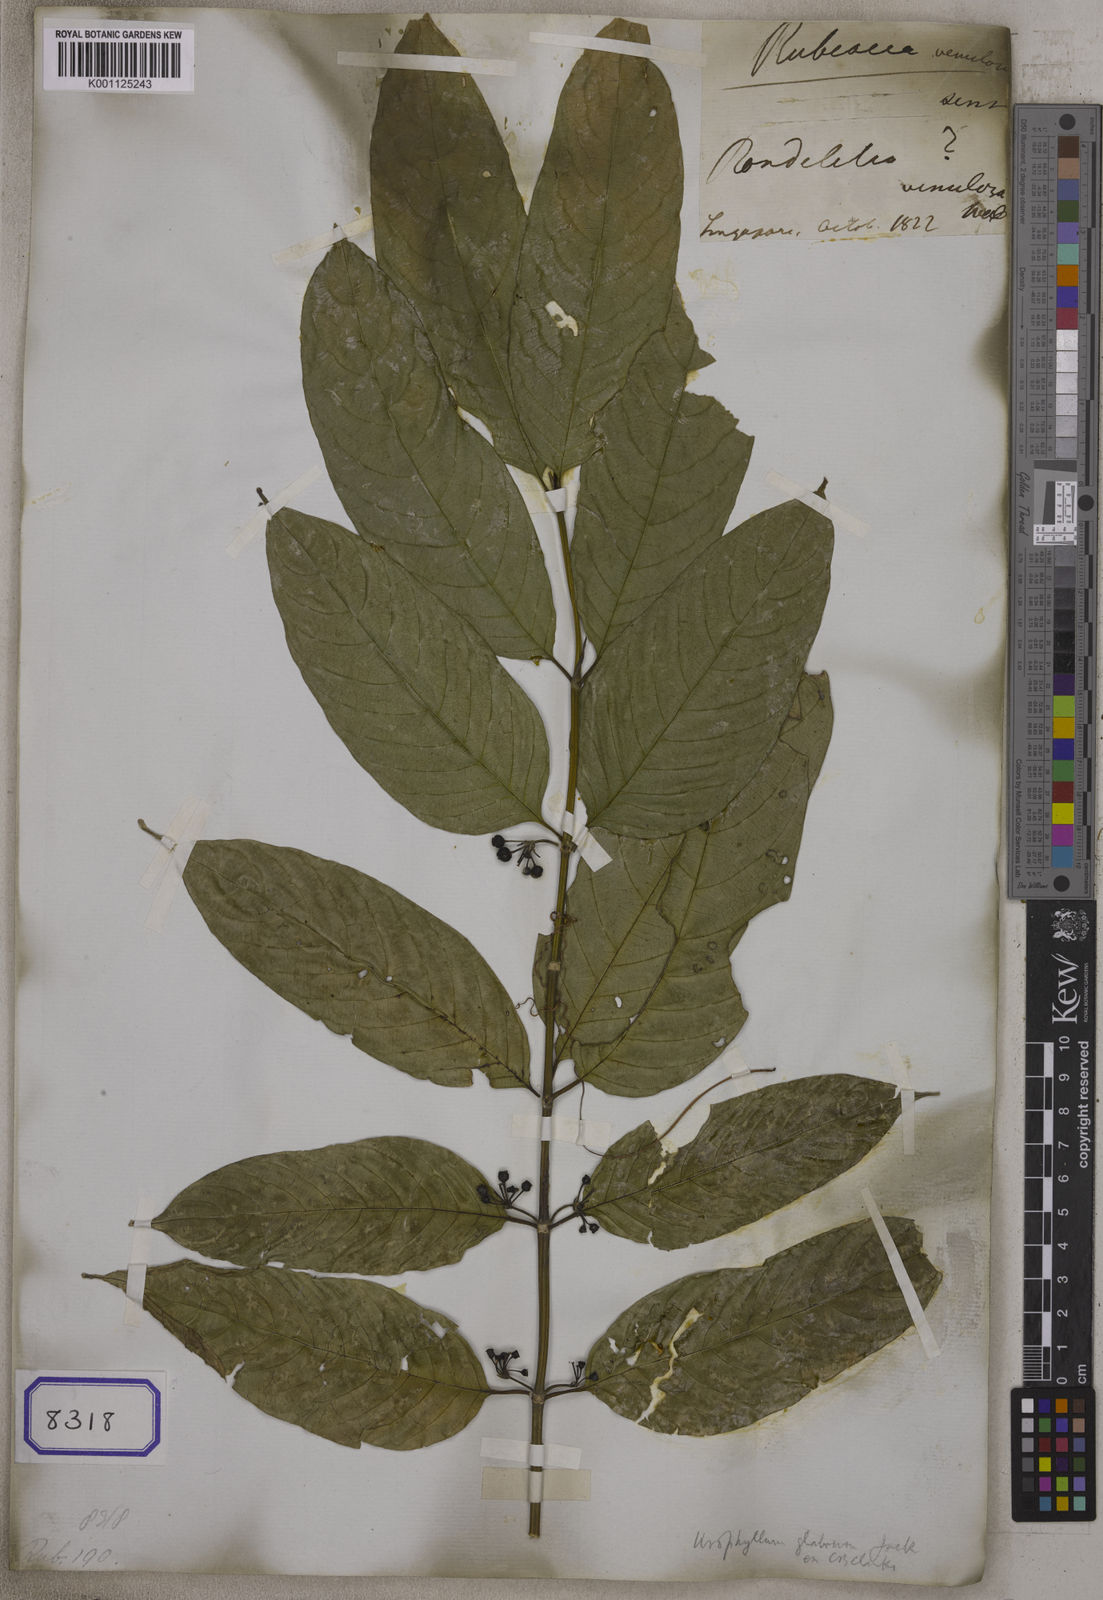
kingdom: Plantae
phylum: Tracheophyta
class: Magnoliopsida
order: Gentianales
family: Rubiaceae
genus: Urophyllum
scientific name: Urophyllum
